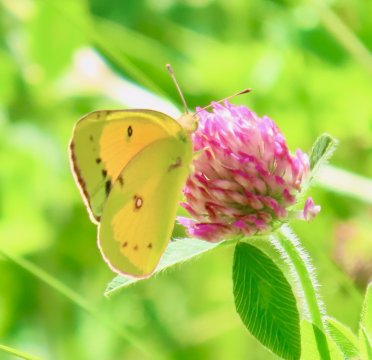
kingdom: Animalia
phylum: Arthropoda
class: Insecta
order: Lepidoptera
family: Pieridae
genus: Colias
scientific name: Colias eurytheme
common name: Orange Sulphur
